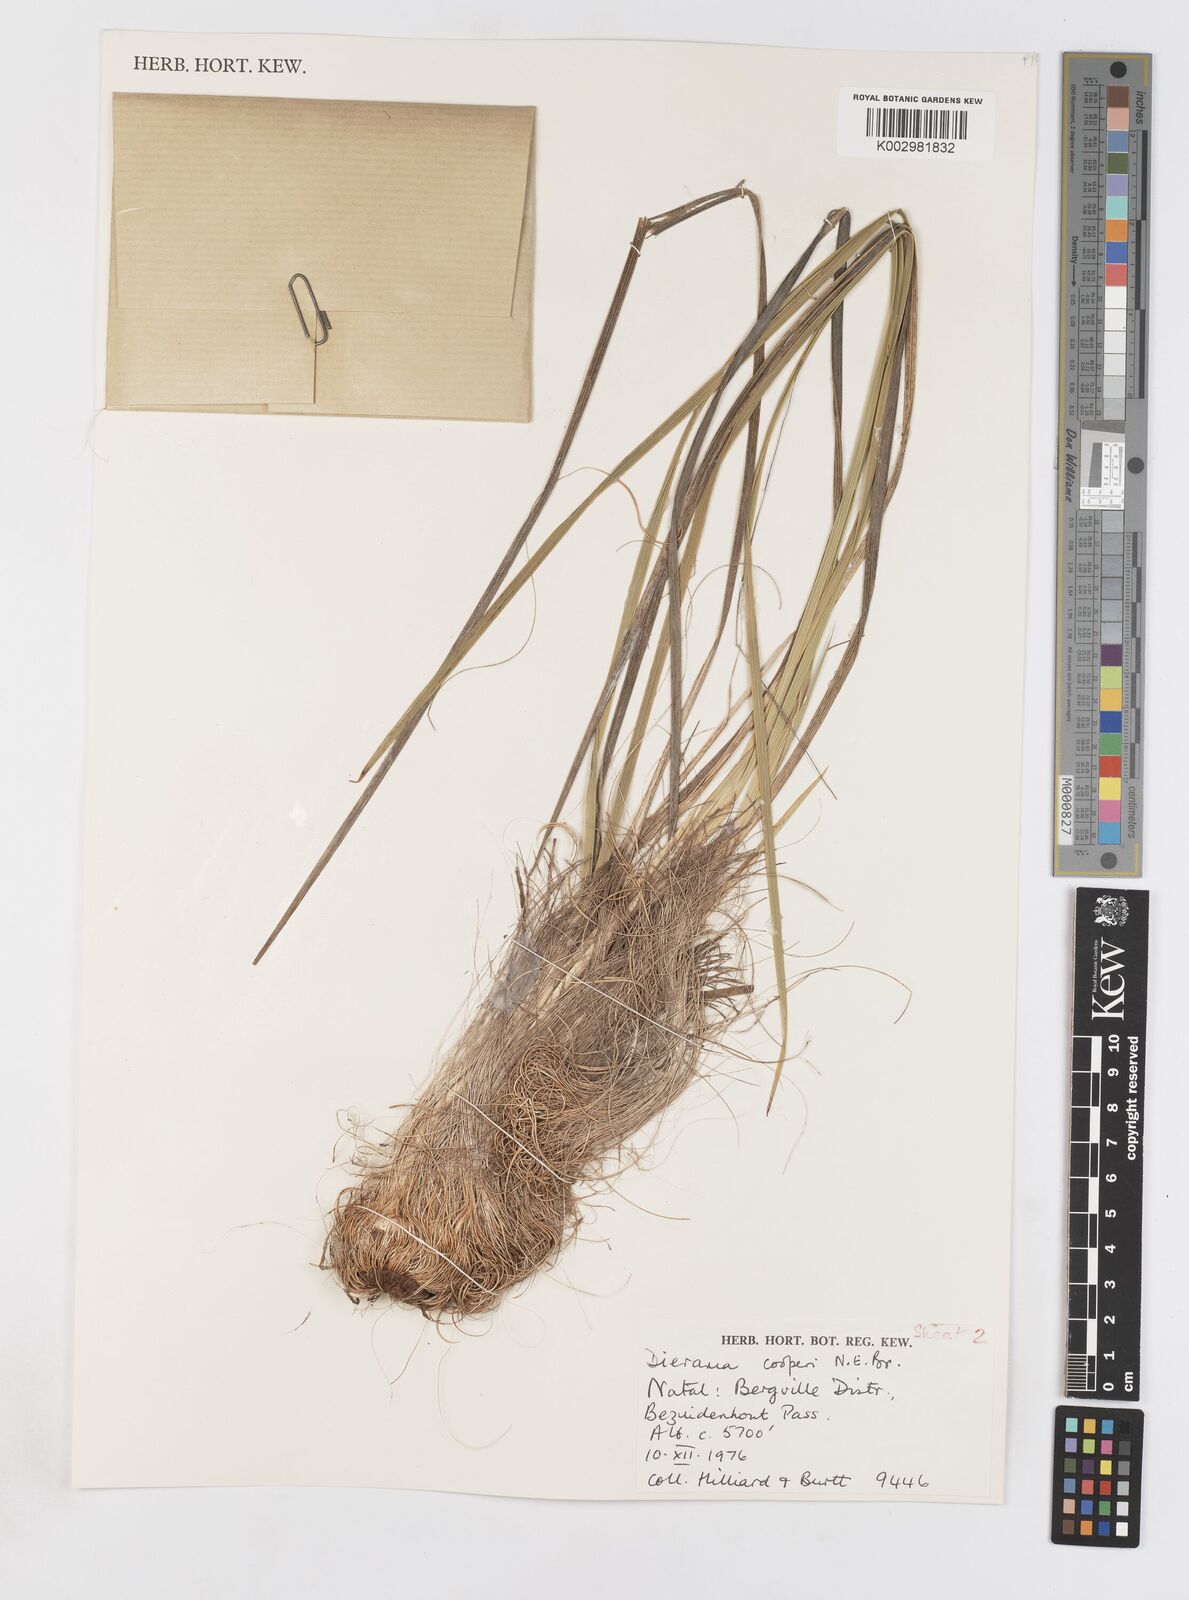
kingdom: Plantae
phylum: Tracheophyta
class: Liliopsida
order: Asparagales
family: Iridaceae
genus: Dierama
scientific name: Dierama cooperi
